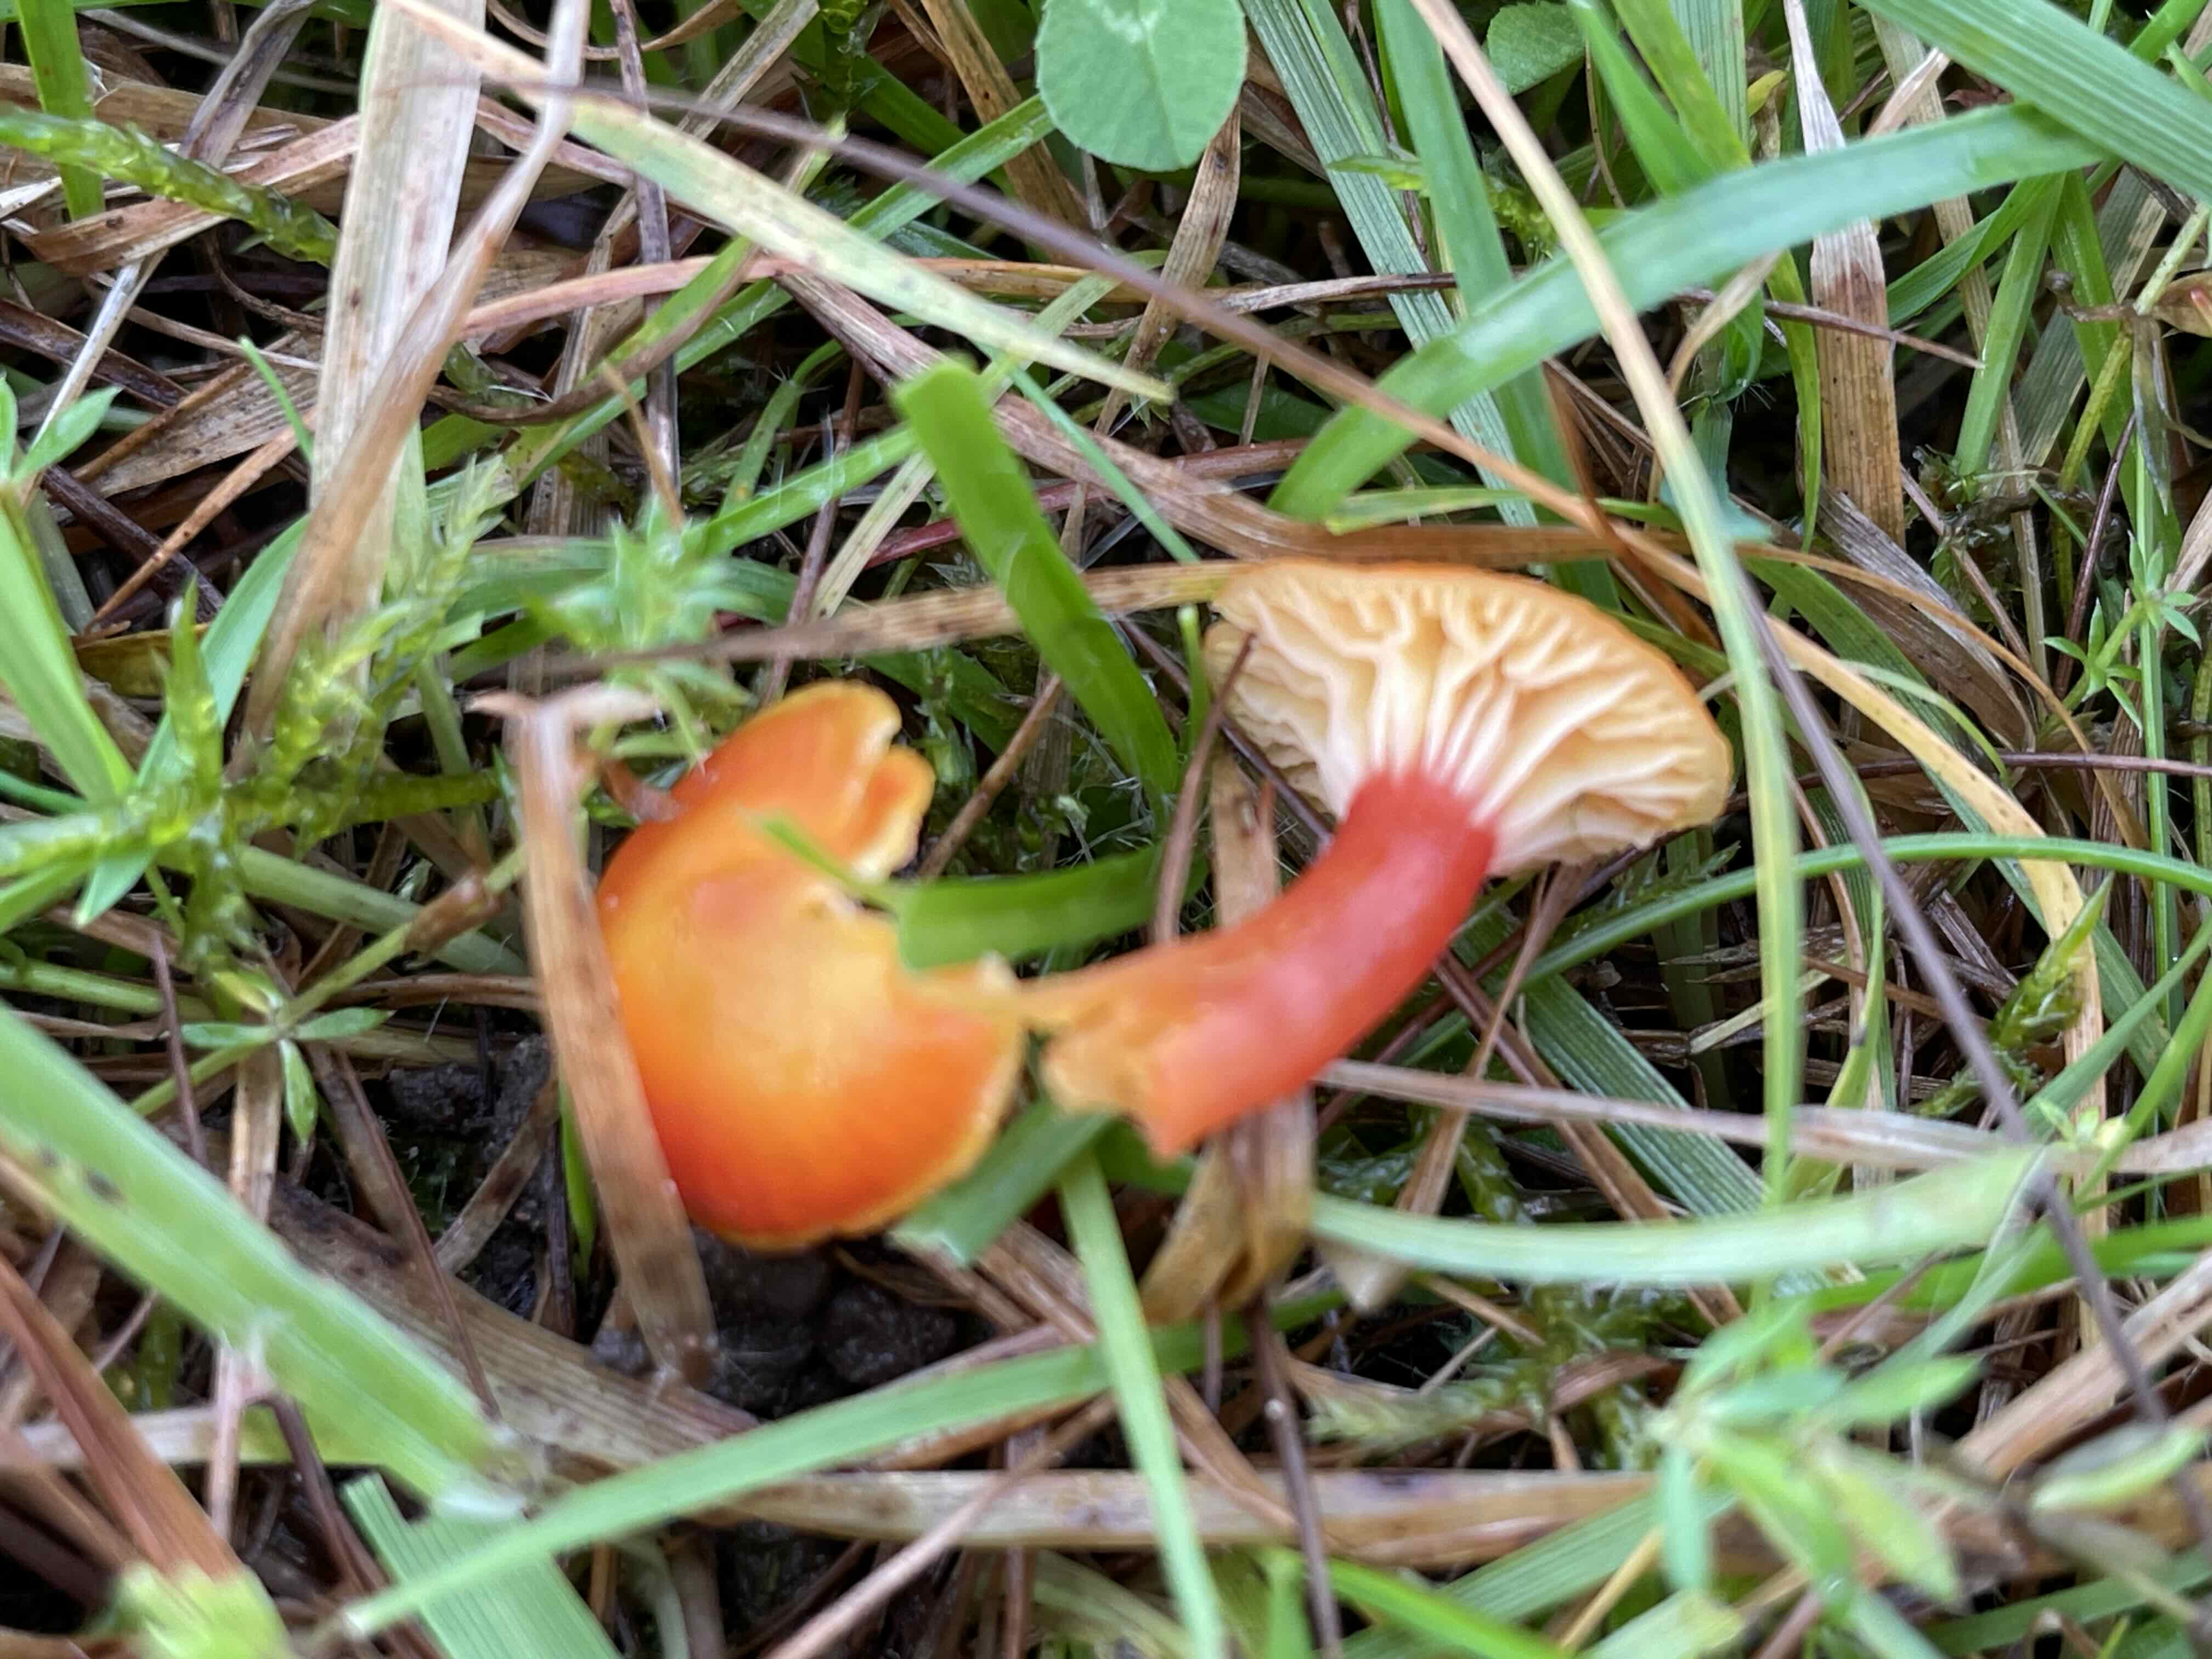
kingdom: Fungi
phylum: Basidiomycota
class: Agaricomycetes
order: Agaricales
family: Hygrophoraceae
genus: Hygrocybe
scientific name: Hygrocybe insipida
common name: liden vokshat
